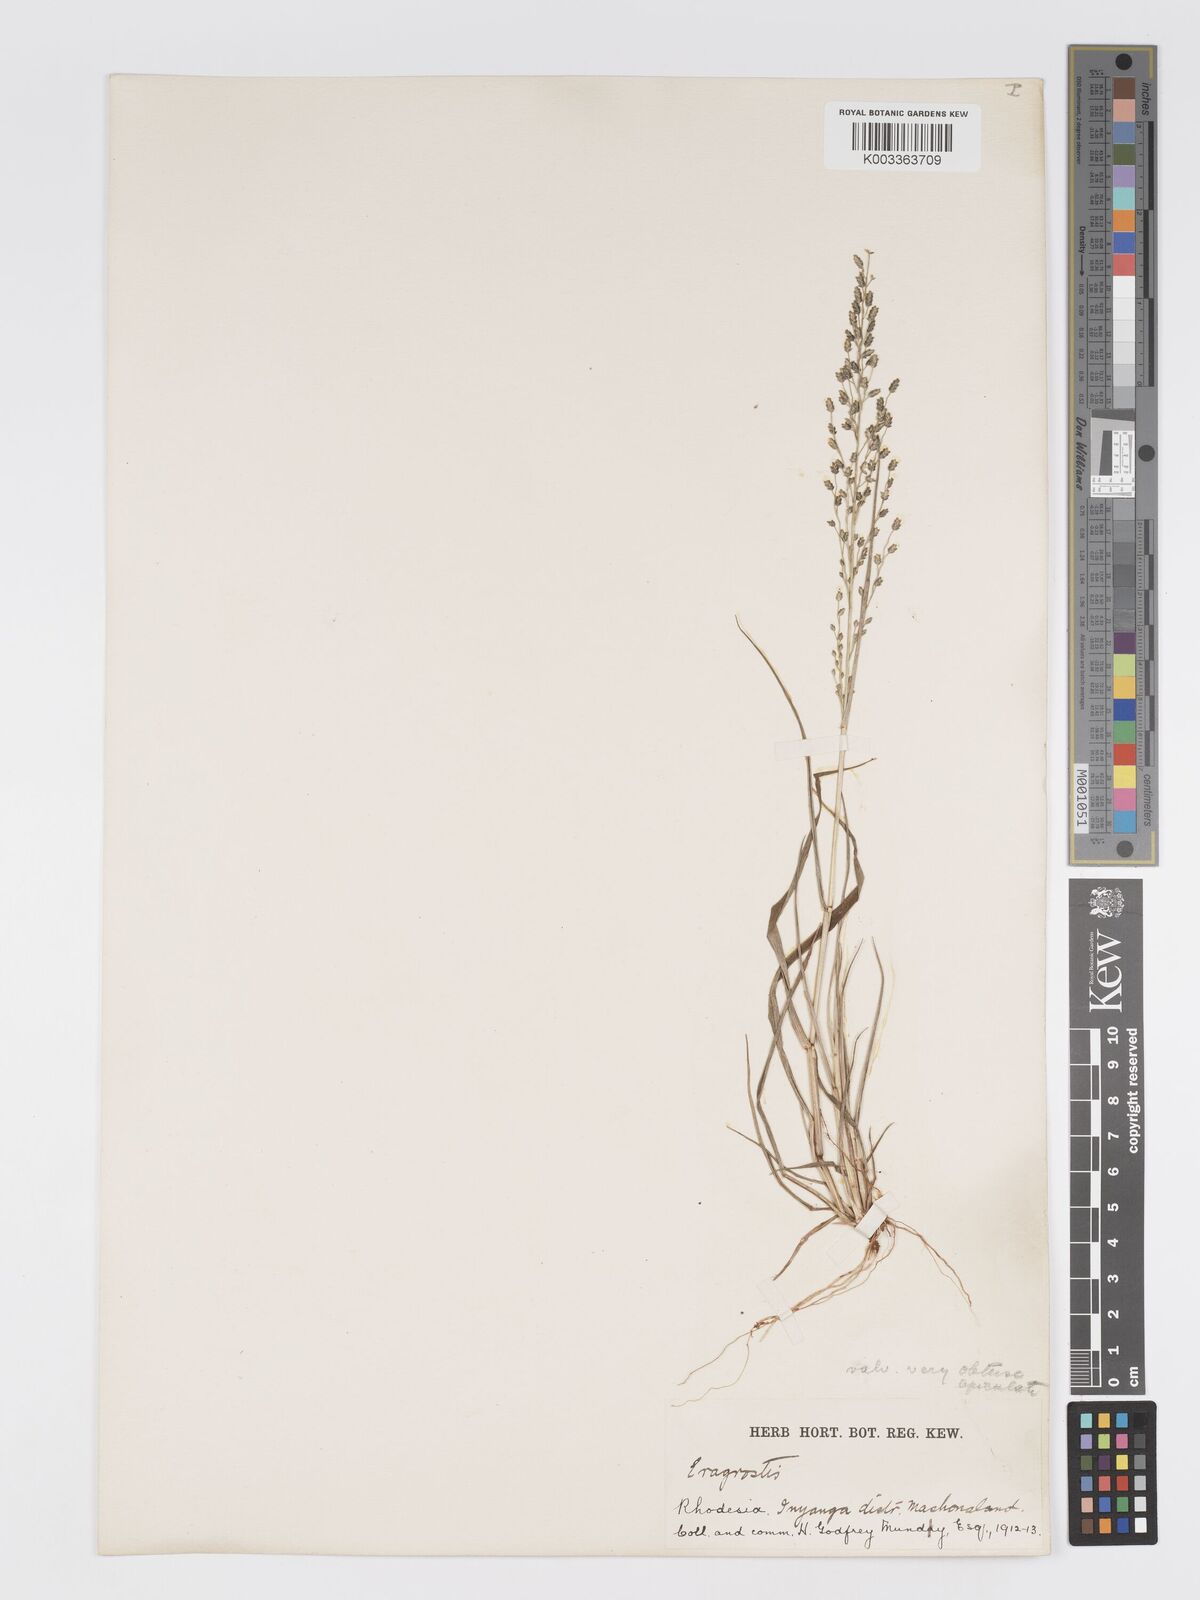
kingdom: Plantae
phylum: Tracheophyta
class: Liliopsida
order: Poales
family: Poaceae
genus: Eragrostis
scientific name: Eragrostis cilianensis
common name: Stinkgrass
